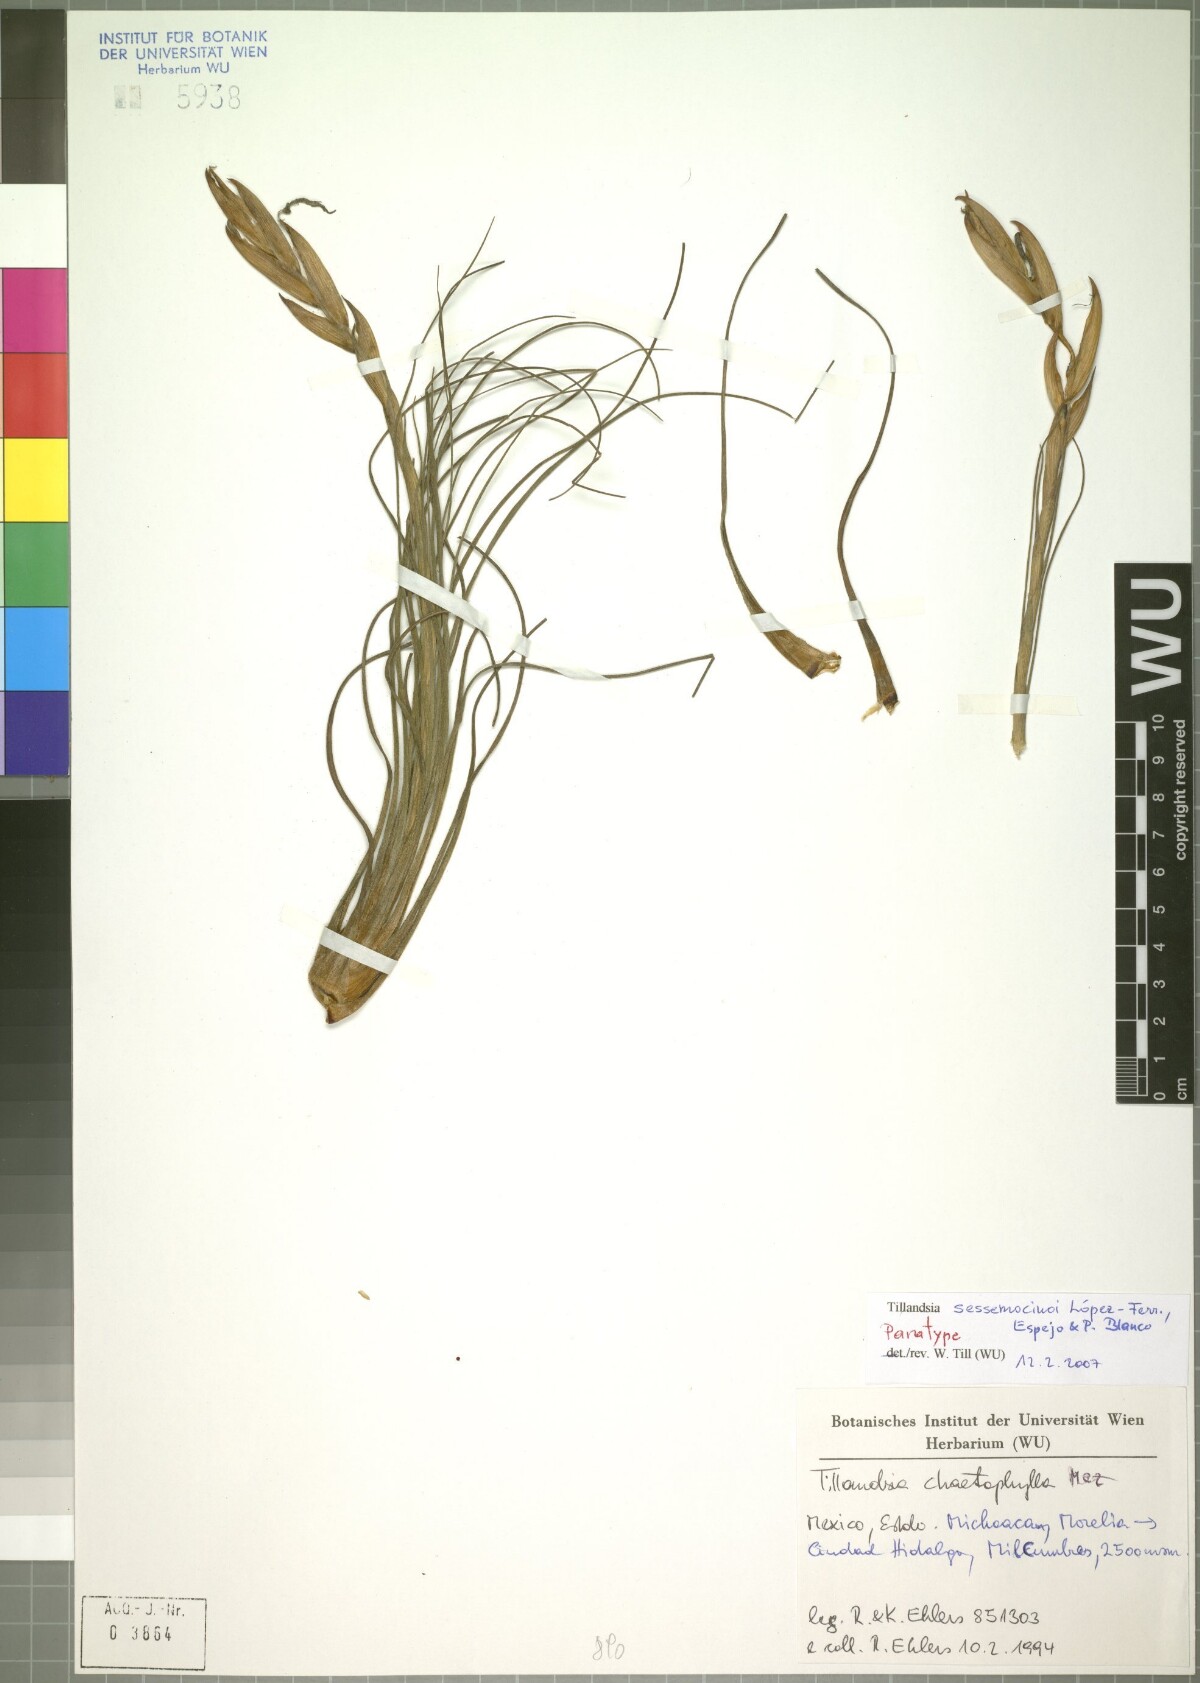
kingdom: Plantae
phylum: Tracheophyta
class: Liliopsida
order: Poales
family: Bromeliaceae
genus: Tillandsia
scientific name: Tillandsia sessemocinoi
